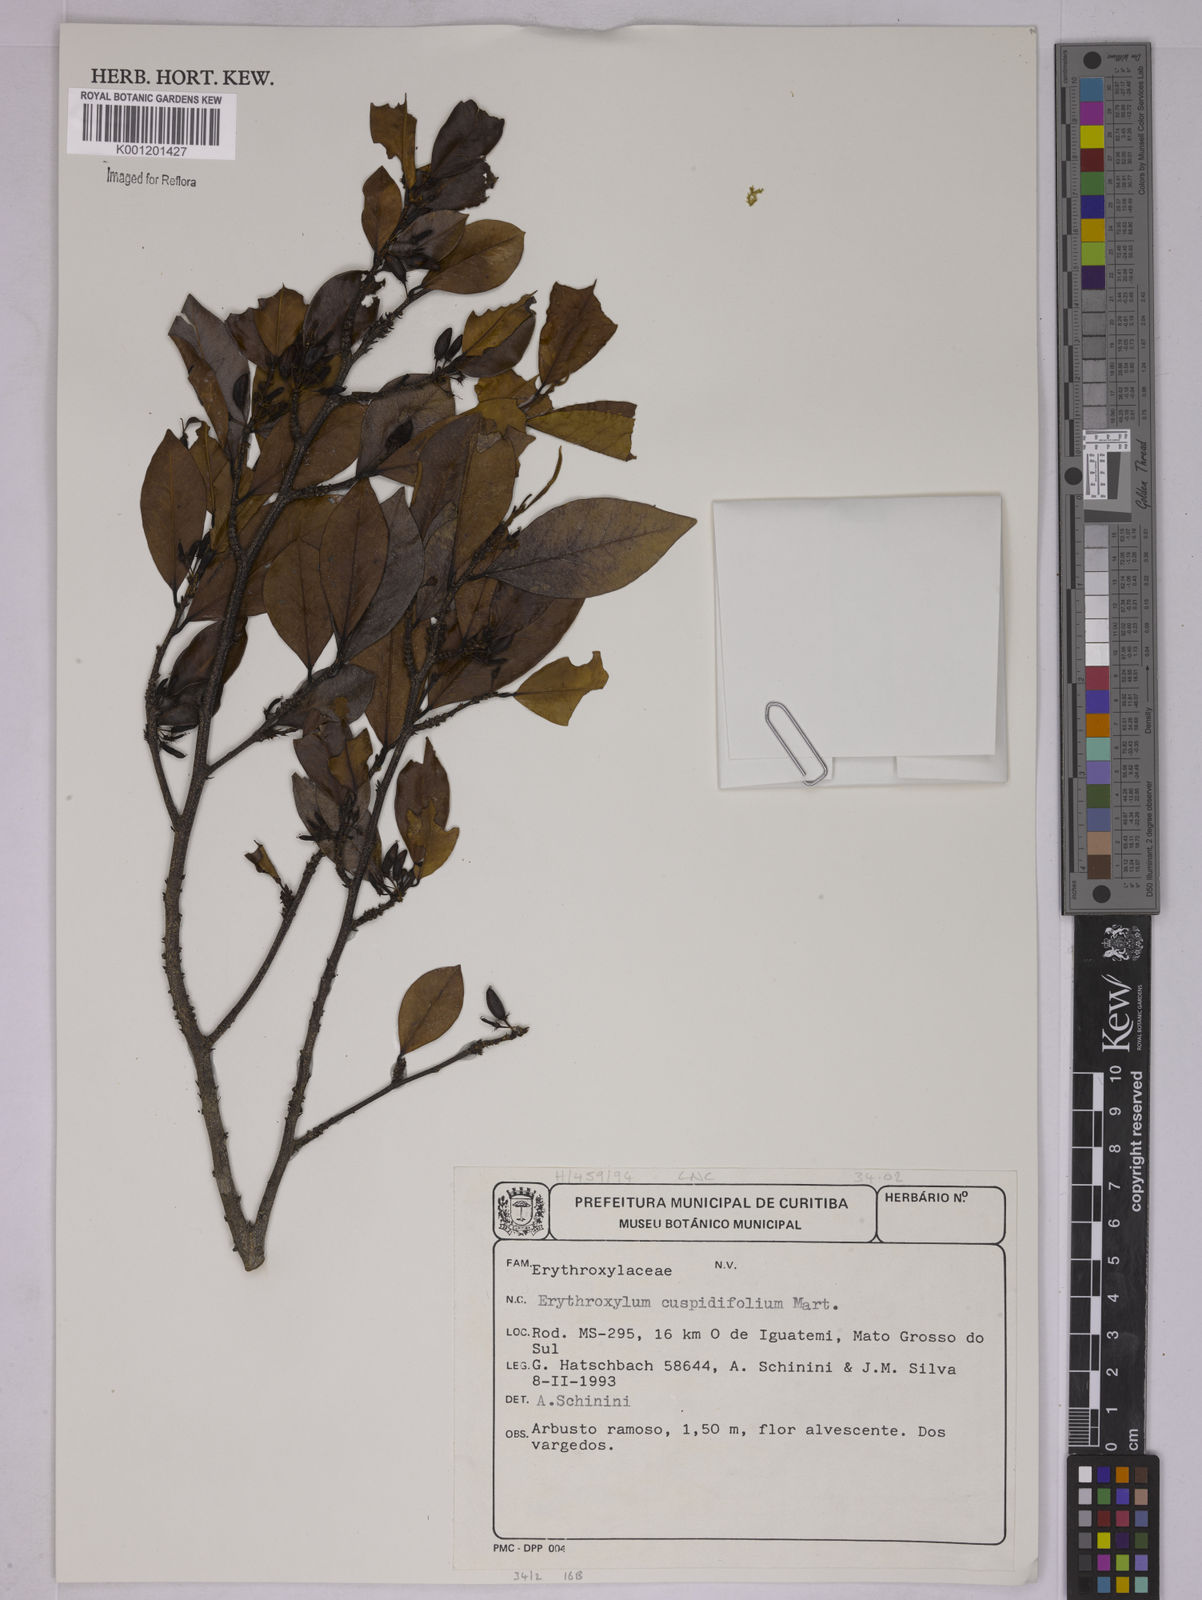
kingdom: Plantae
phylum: Tracheophyta
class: Magnoliopsida
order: Malpighiales
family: Erythroxylaceae
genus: Erythroxylum
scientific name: Erythroxylum cuspidifolium
